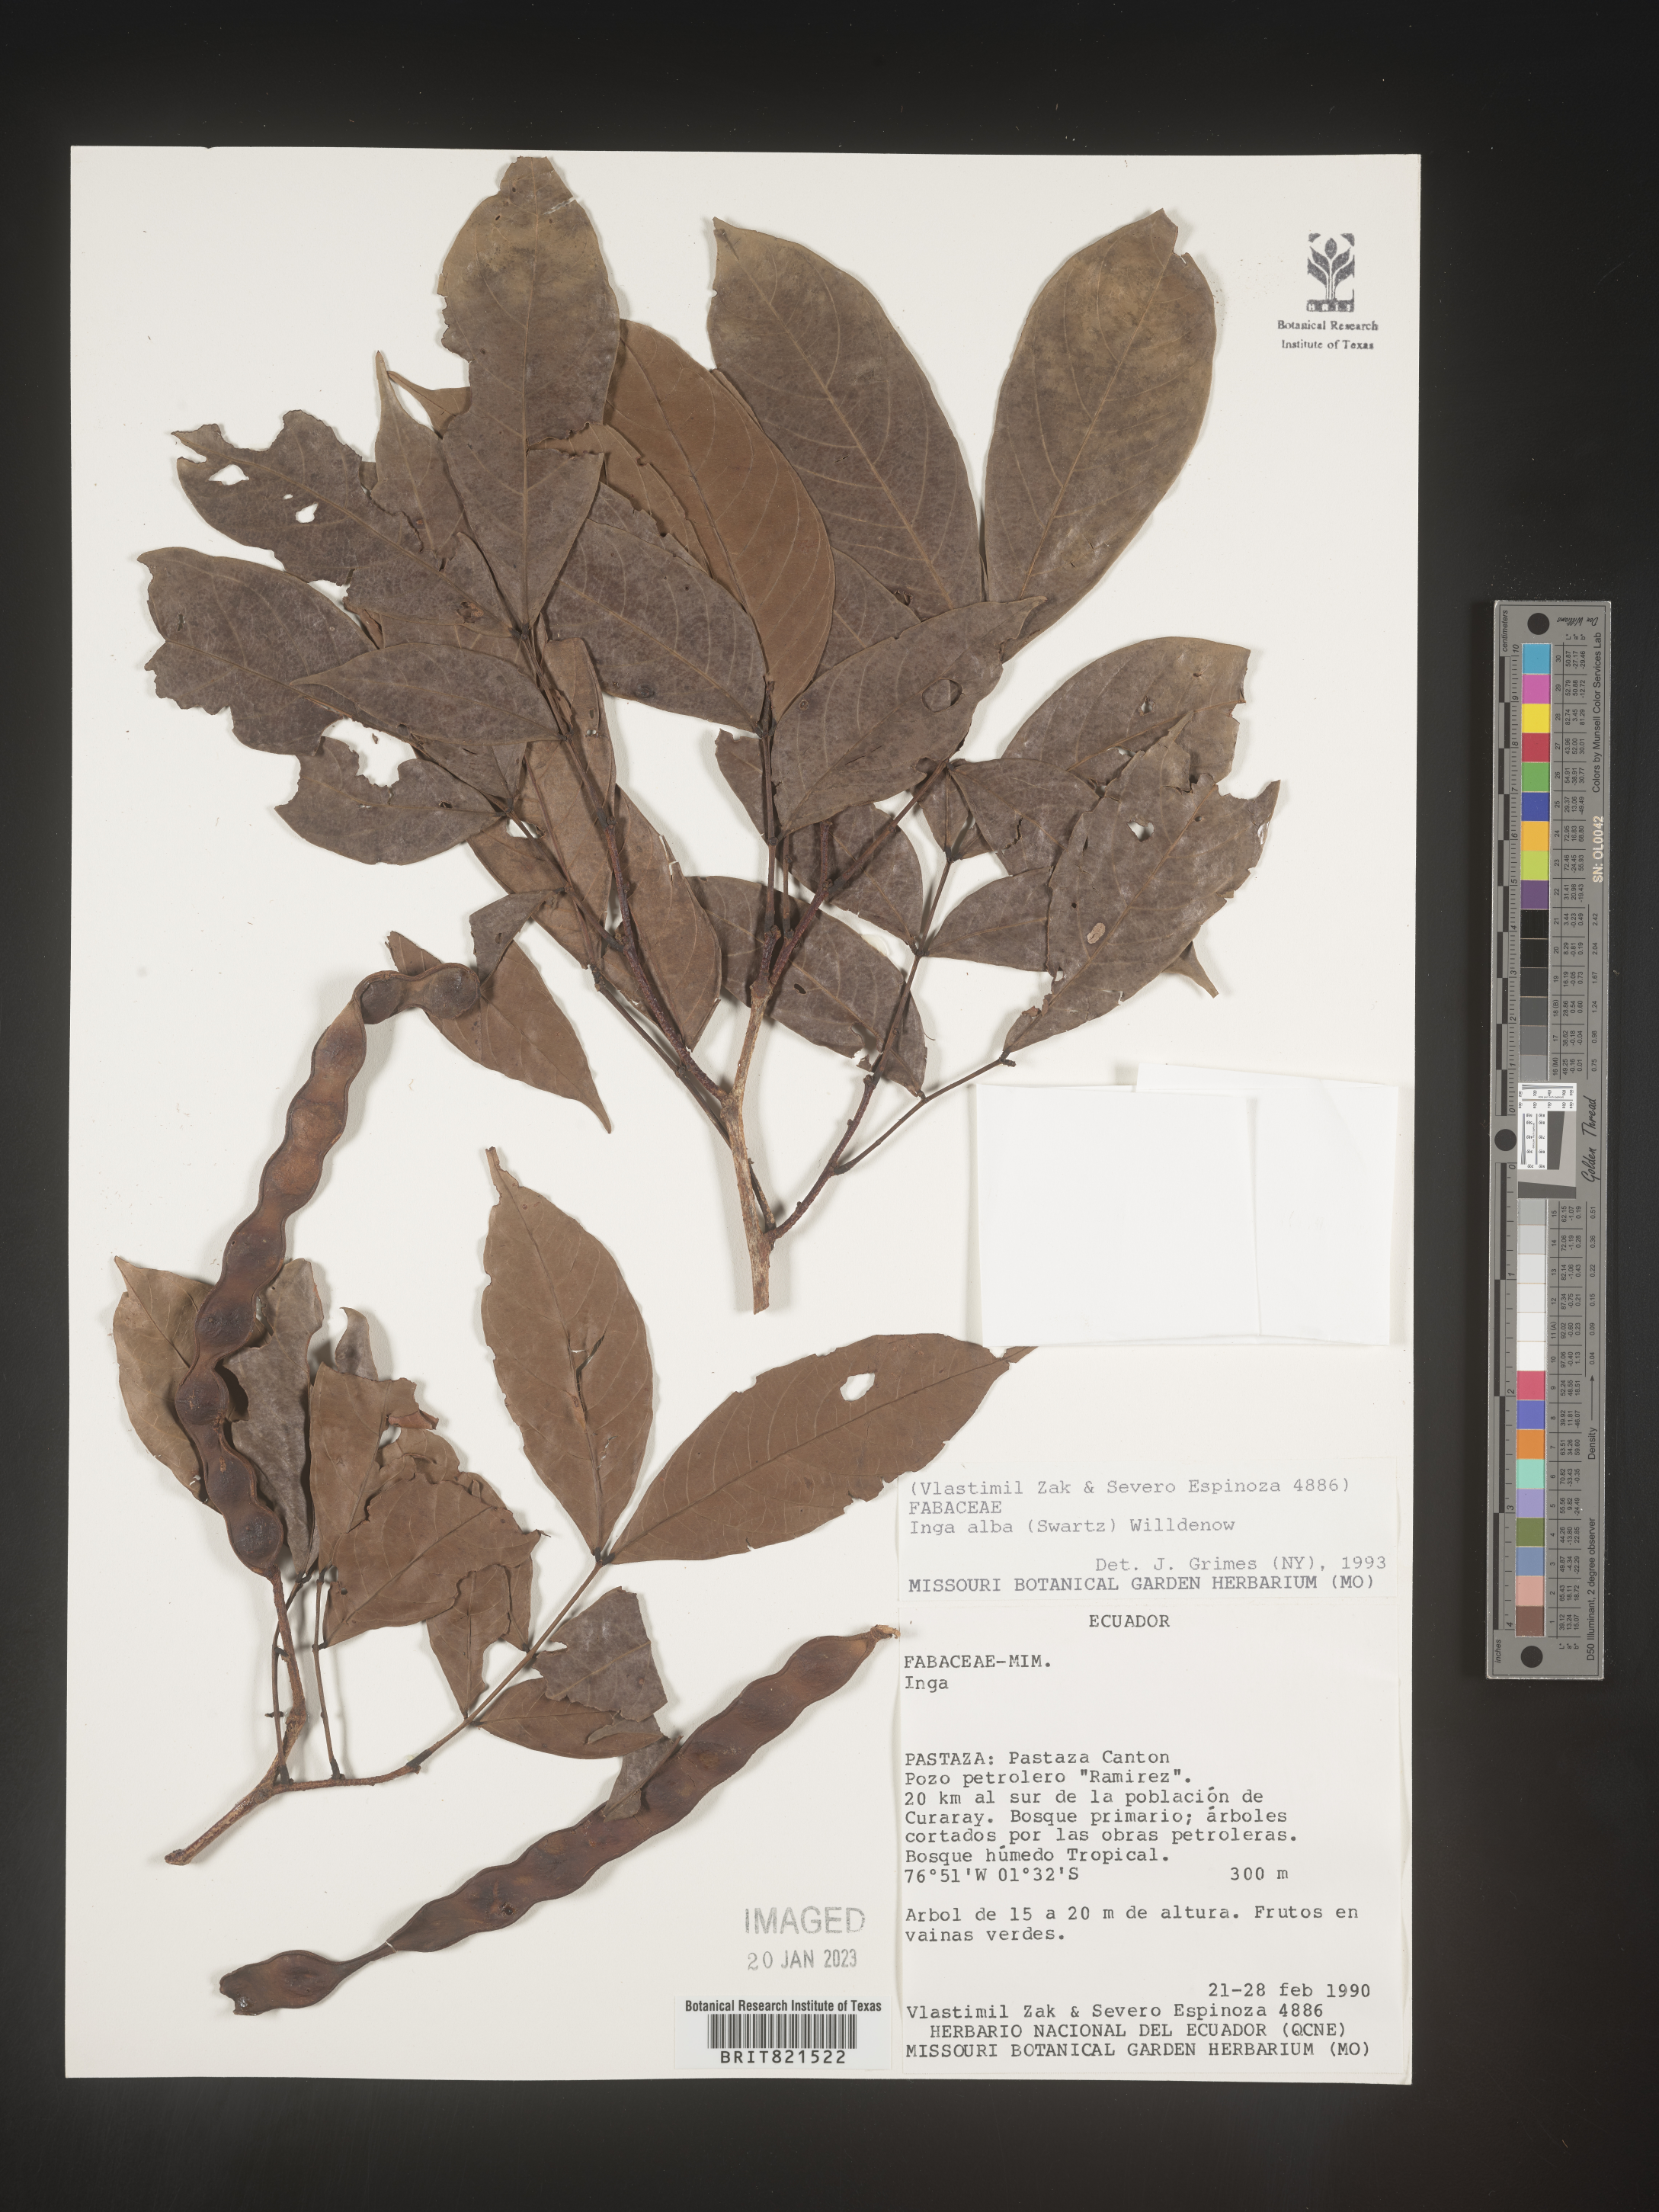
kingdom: Plantae
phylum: Tracheophyta
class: Magnoliopsida
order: Fabales
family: Fabaceae
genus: Inga
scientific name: Inga
